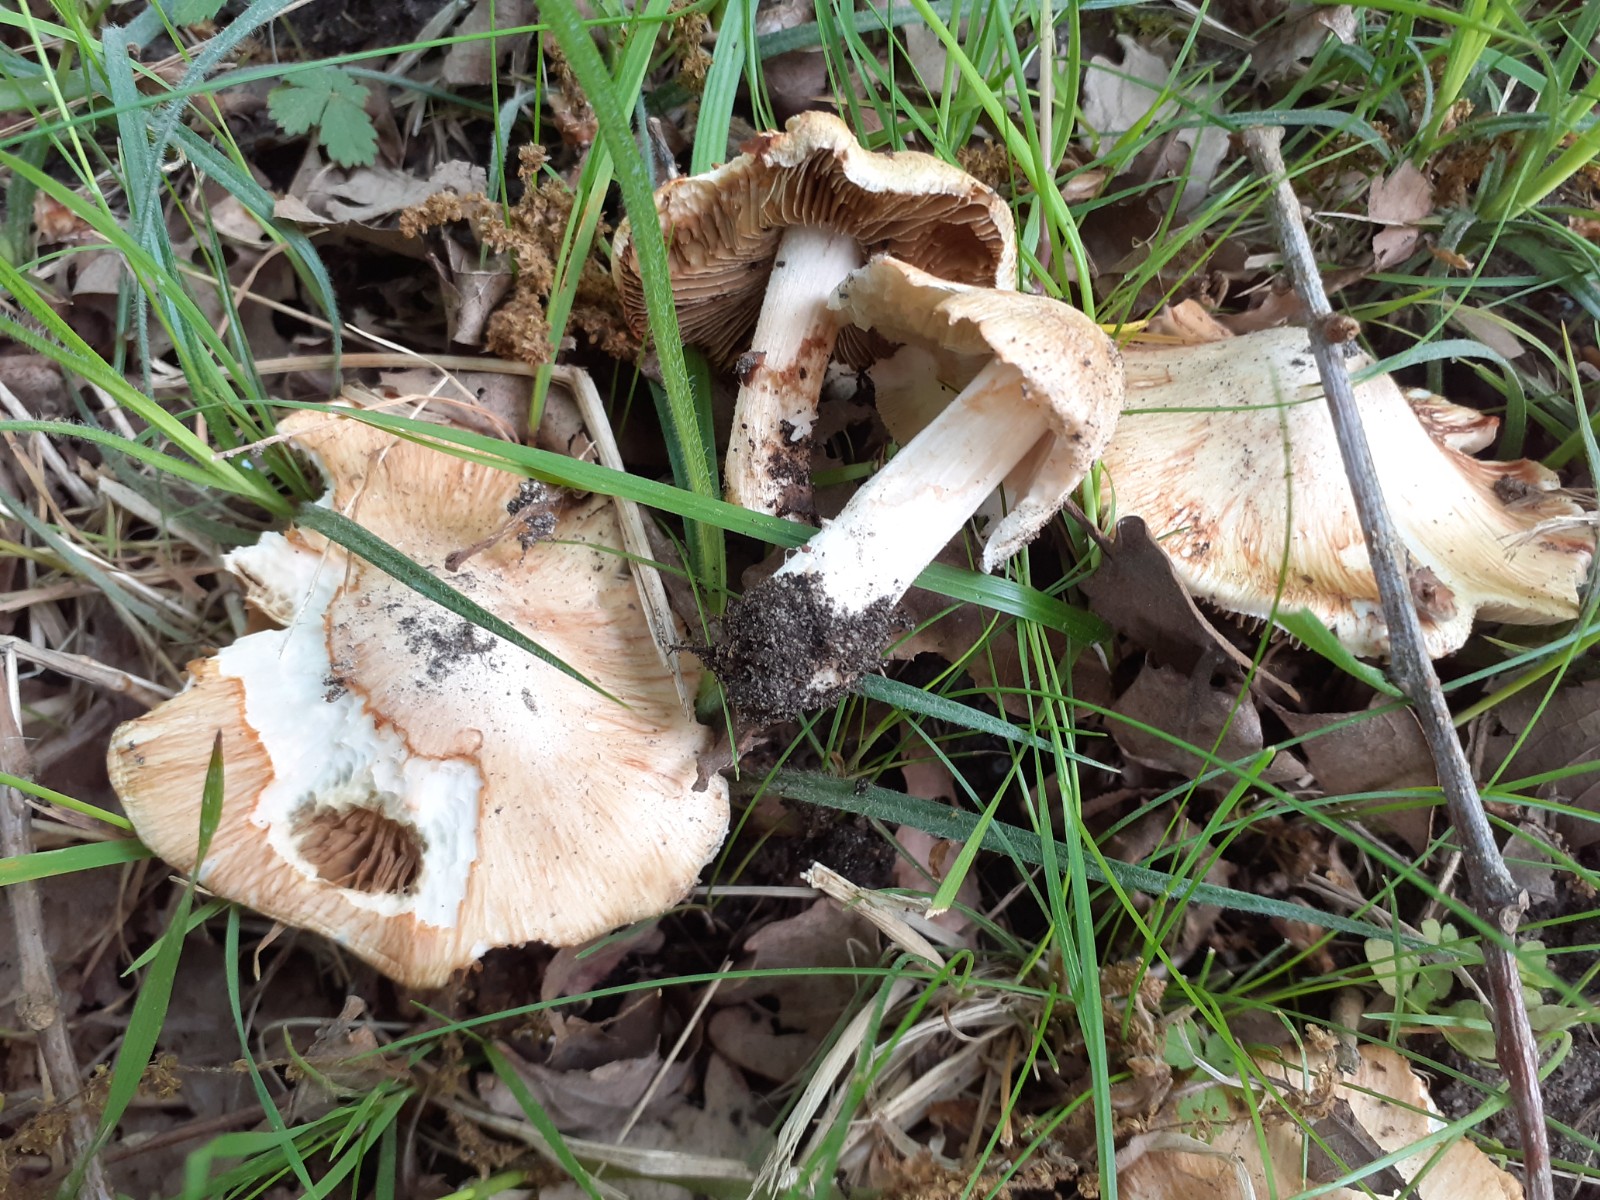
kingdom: Fungi
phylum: Basidiomycota
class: Agaricomycetes
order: Agaricales
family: Inocybaceae
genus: Inosperma
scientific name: Inosperma erubescens
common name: giftig trævlhat
